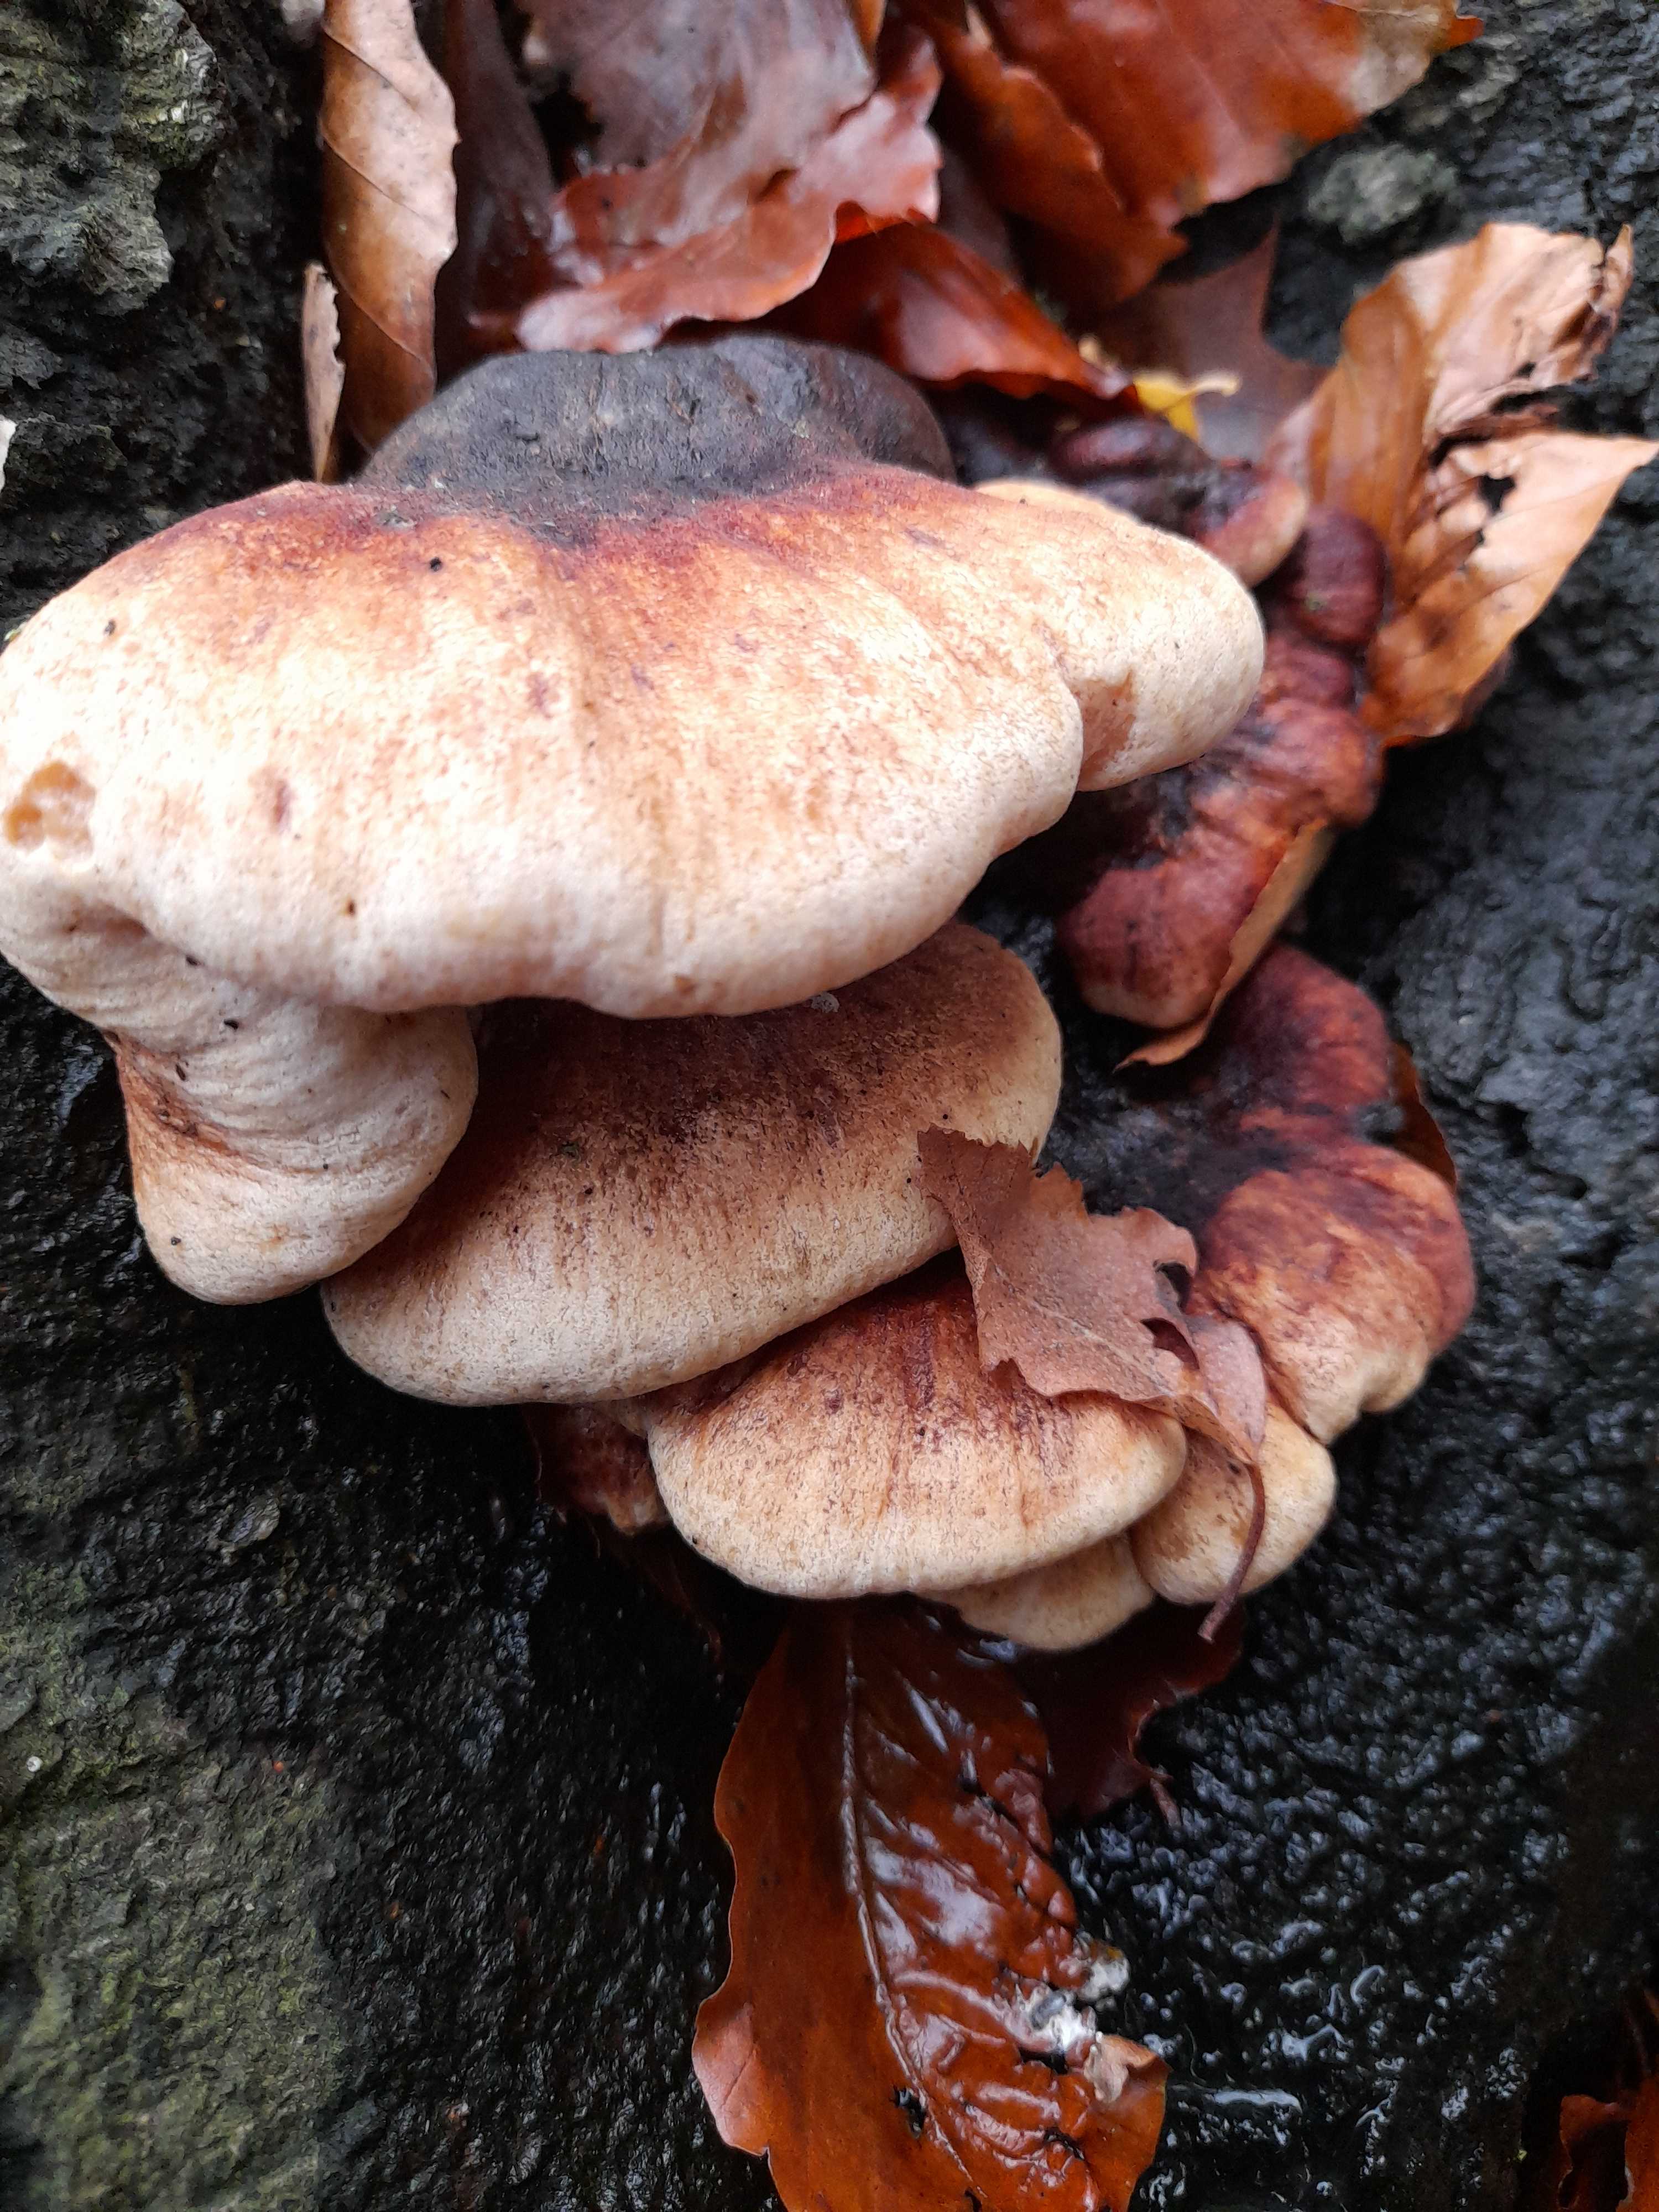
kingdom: Fungi
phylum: Basidiomycota
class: Agaricomycetes
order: Polyporales
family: Ischnodermataceae
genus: Ischnoderma
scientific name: Ischnoderma resinosum
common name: løv-tjæreporesvamp
